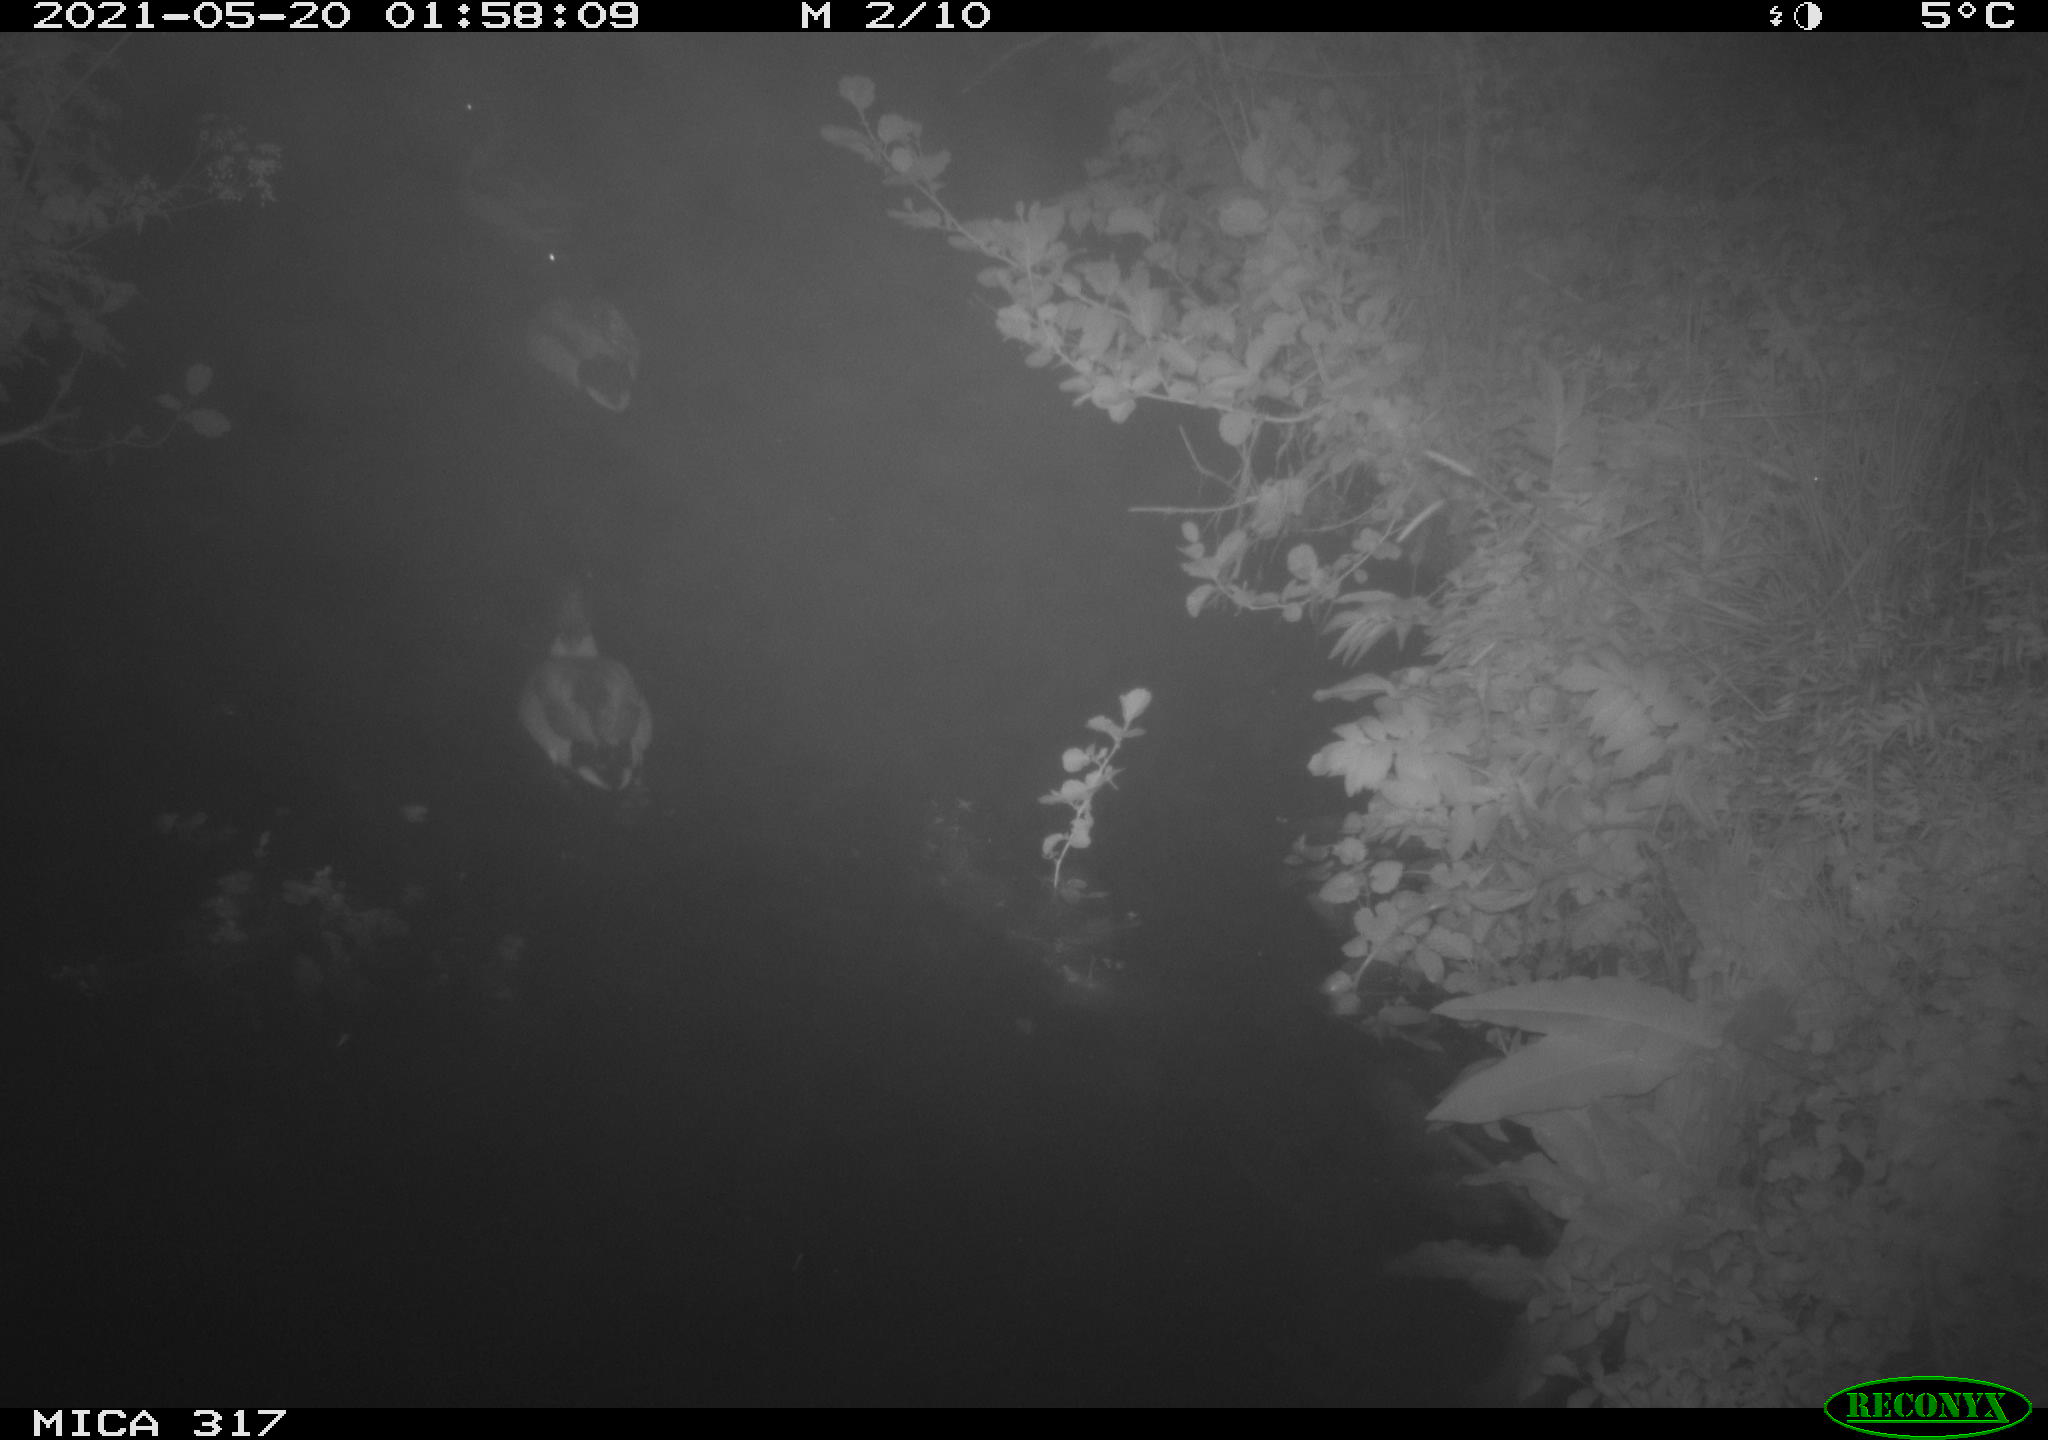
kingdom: Animalia
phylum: Chordata
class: Aves
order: Anseriformes
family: Anatidae
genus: Anas
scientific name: Anas
